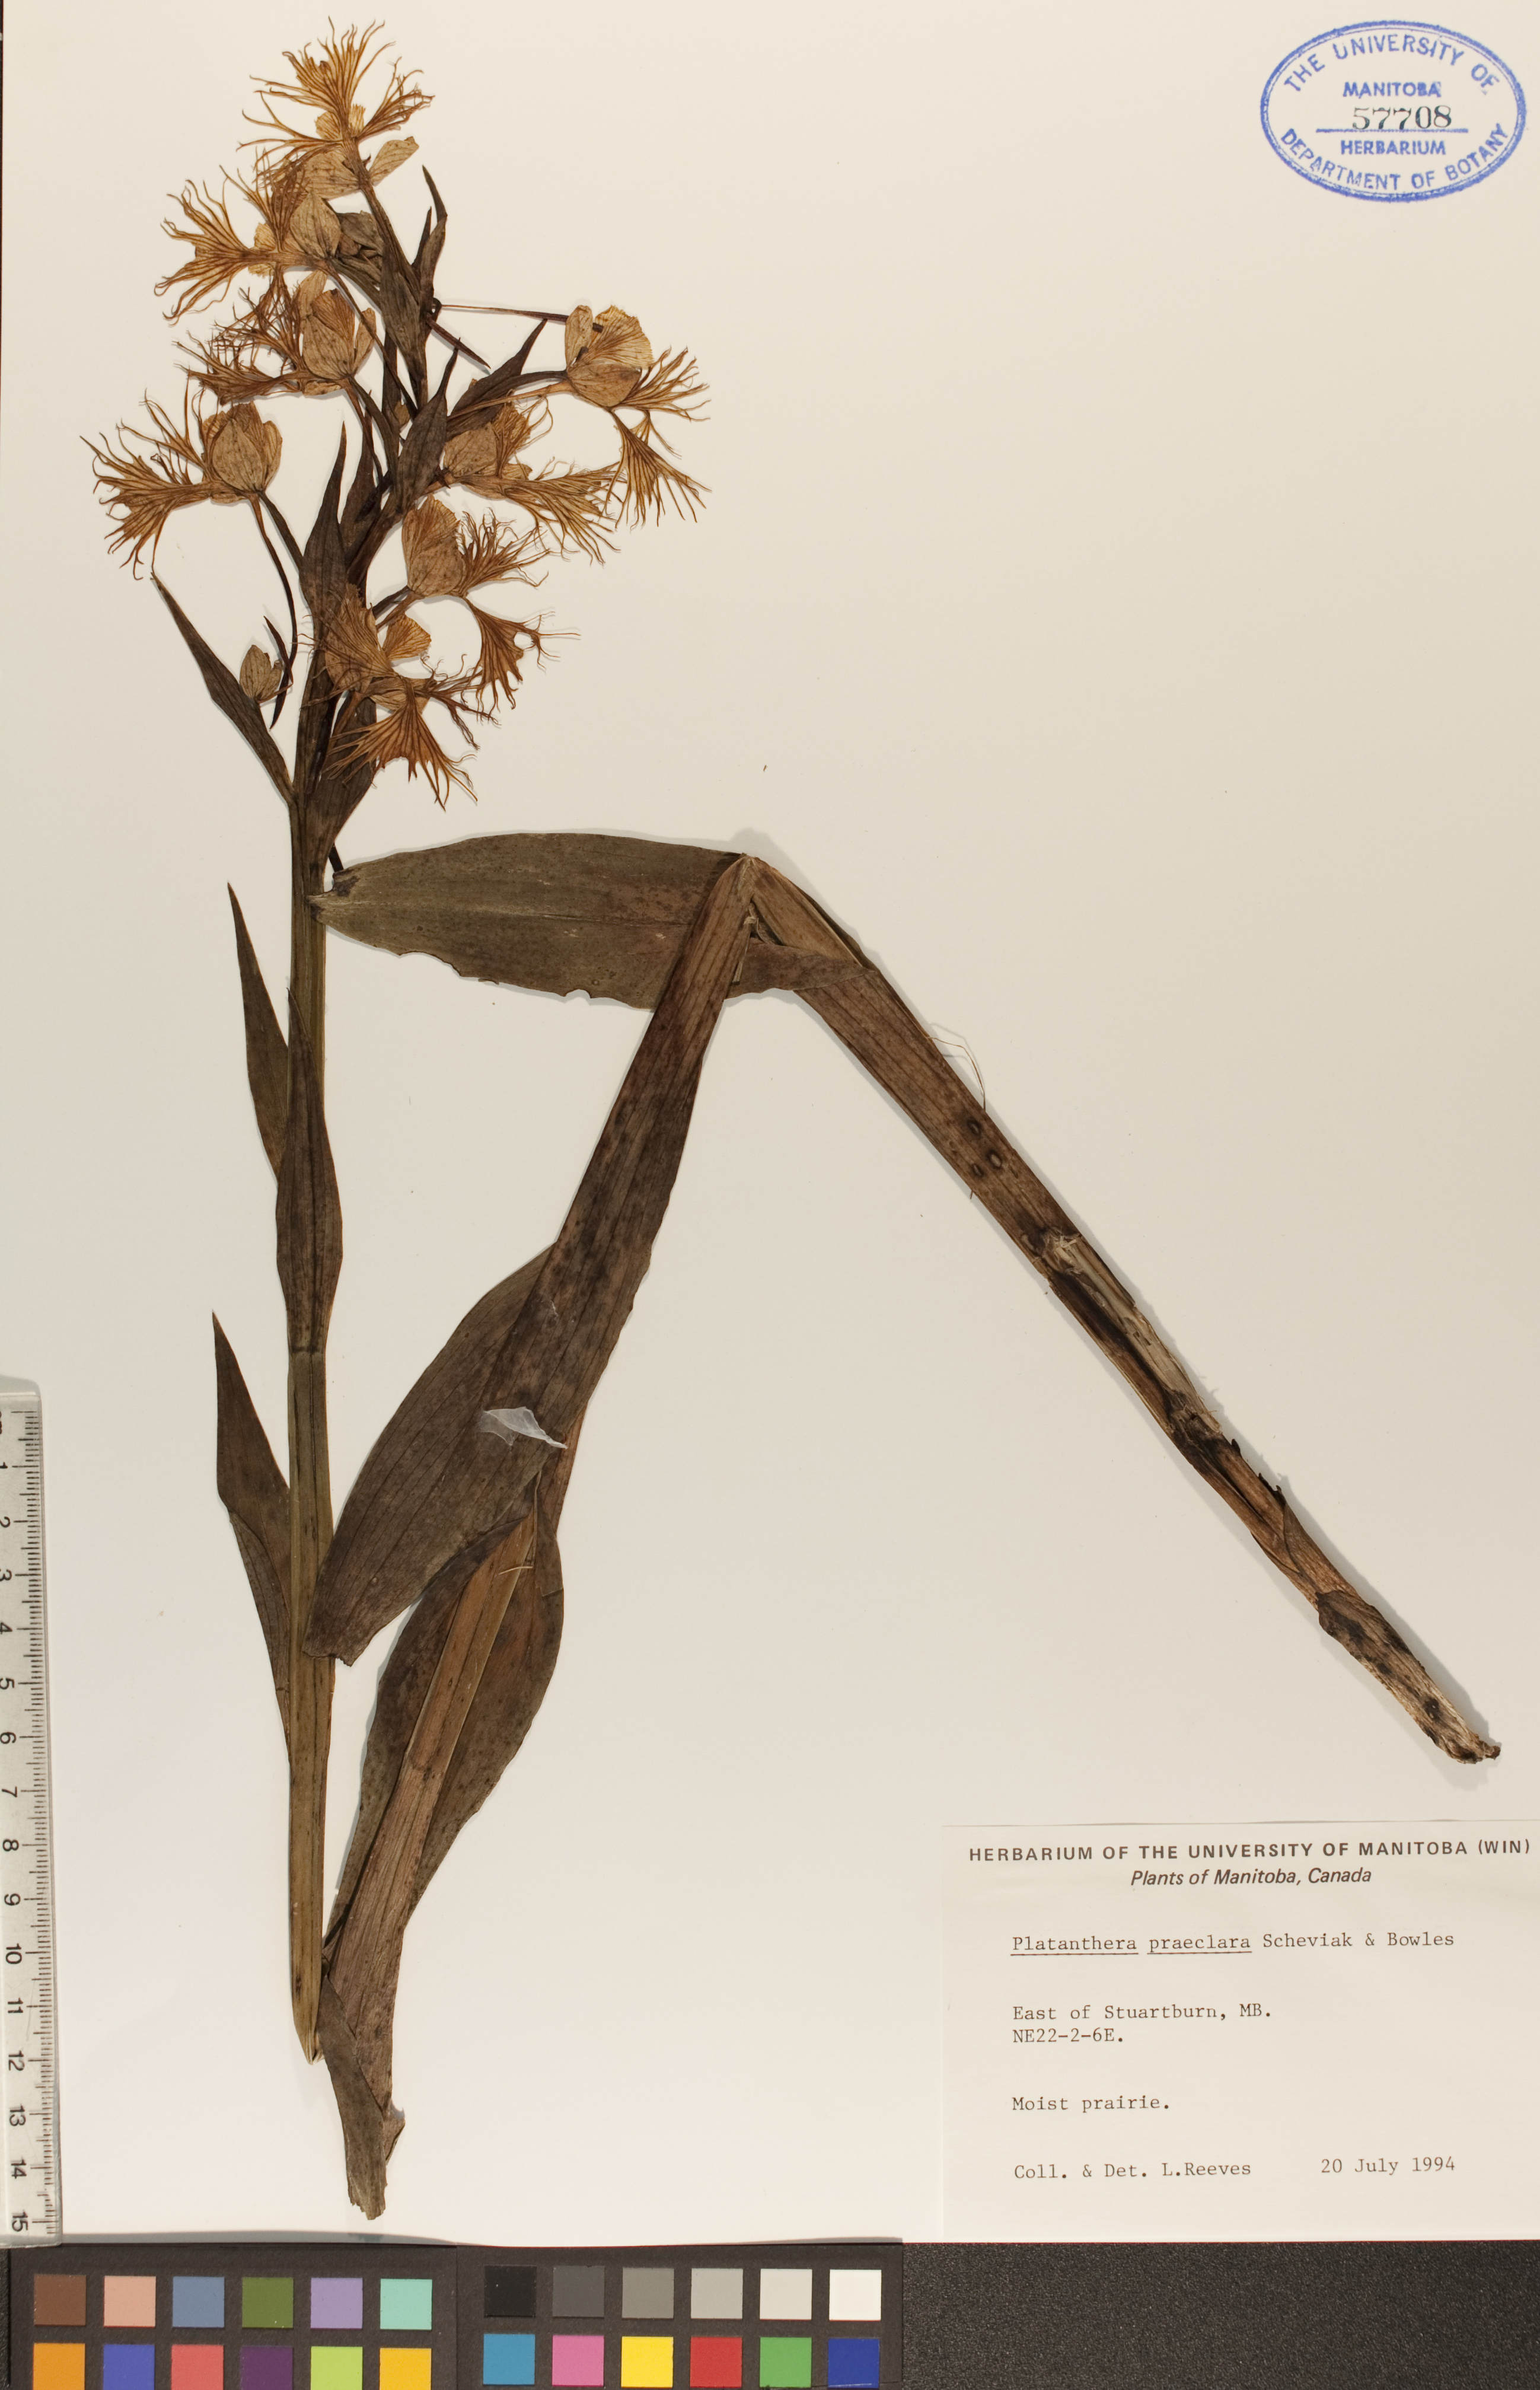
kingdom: Plantae
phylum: Tracheophyta
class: Liliopsida
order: Asparagales
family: Orchidaceae
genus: Platanthera
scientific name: Platanthera praeclara
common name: Western prairie fringed orchid
